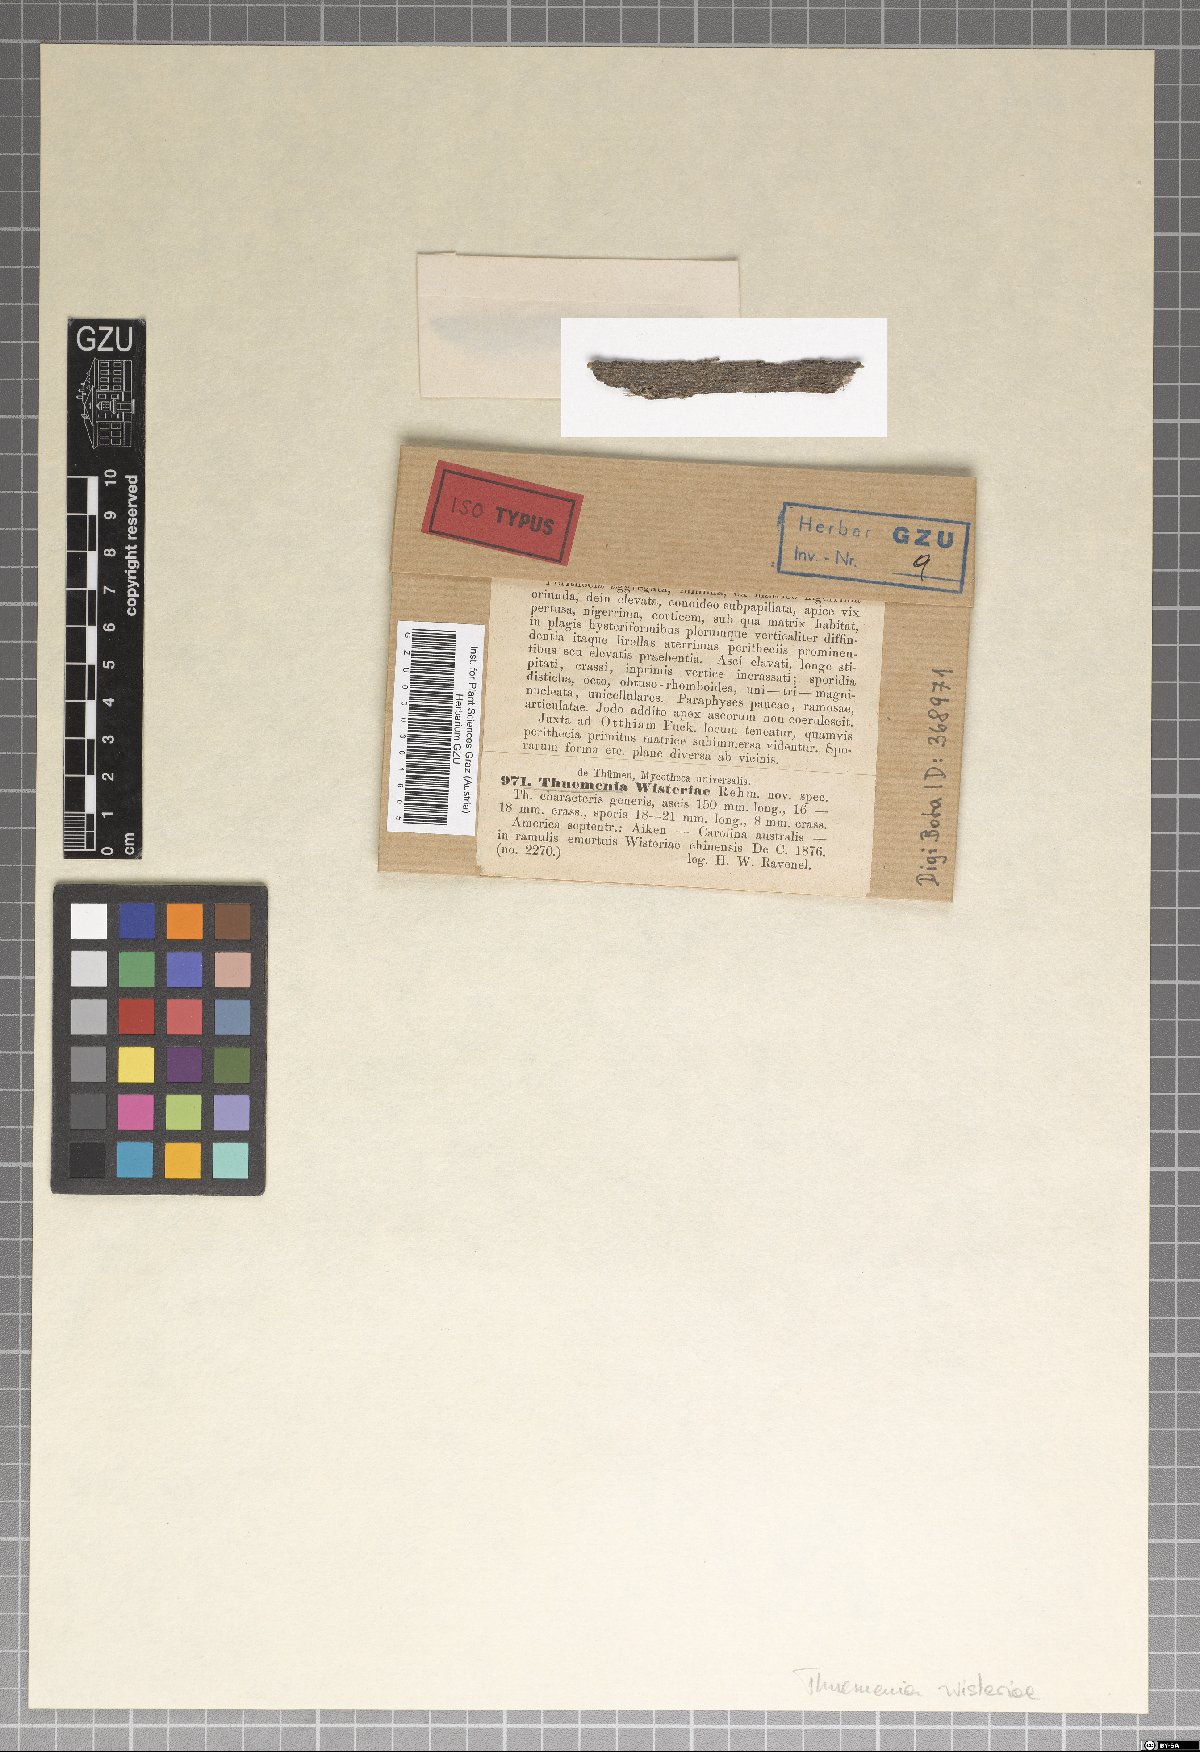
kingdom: Fungi
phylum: Ascomycota
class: Dothideomycetes
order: Botryosphaeriales
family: Botryosphaeriaceae
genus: Melanops
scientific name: Melanops wisteriae
